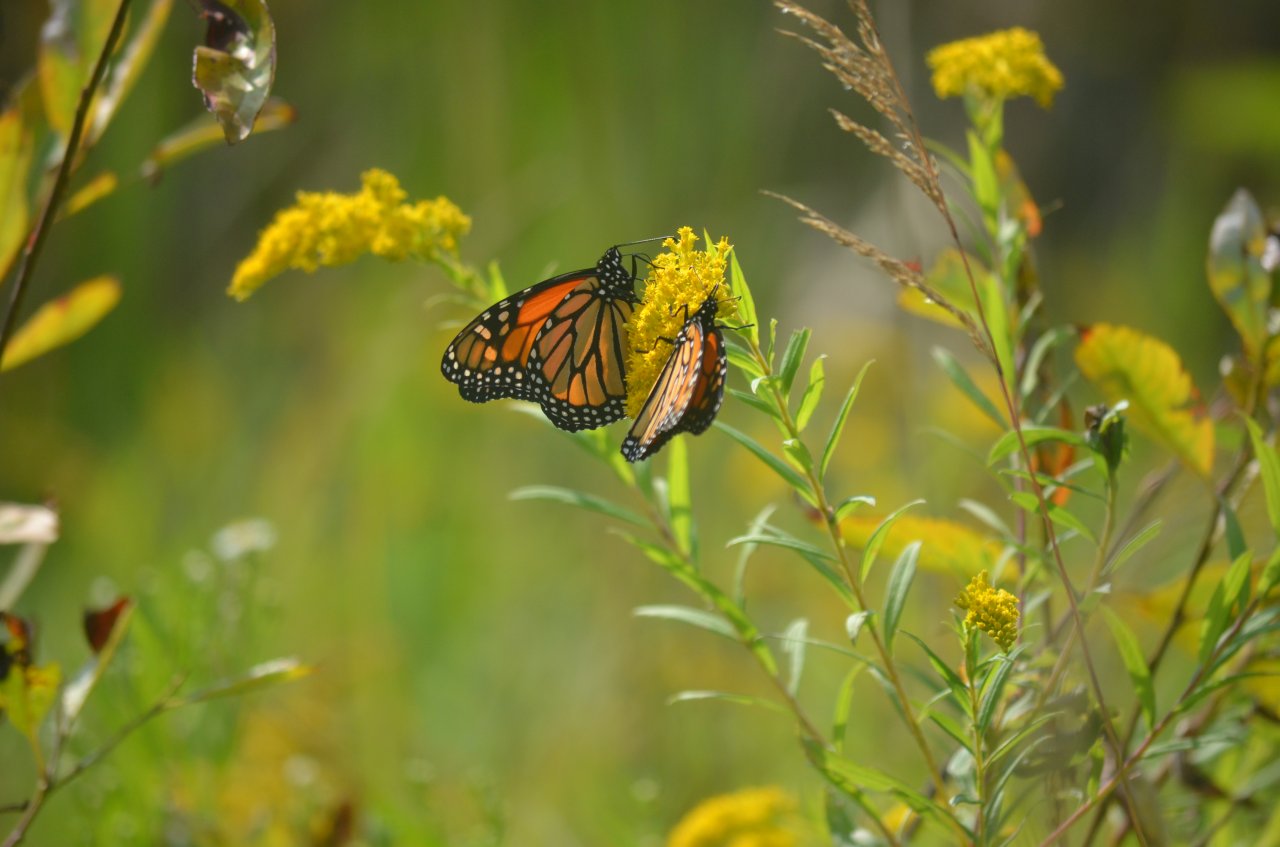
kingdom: Animalia
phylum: Arthropoda
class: Insecta
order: Lepidoptera
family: Nymphalidae
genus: Danaus
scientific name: Danaus plexippus
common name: Monarch
